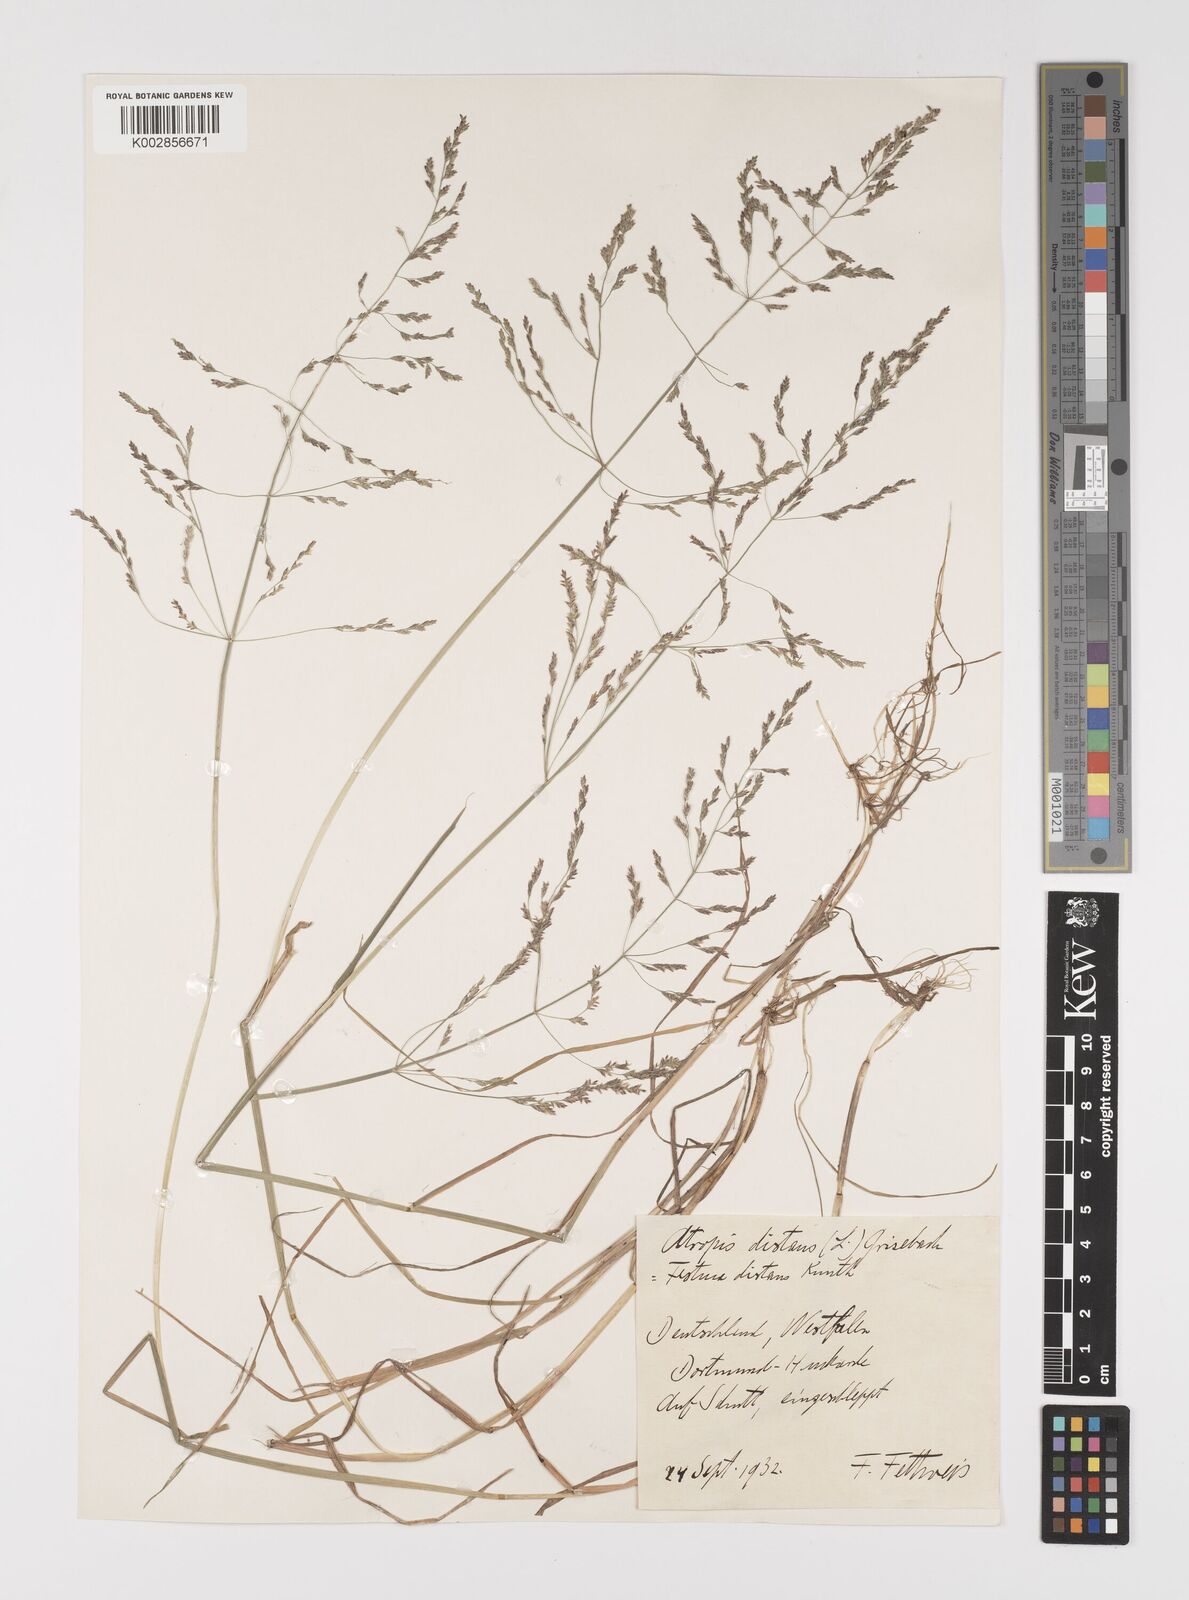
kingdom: Plantae
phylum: Tracheophyta
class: Liliopsida
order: Poales
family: Poaceae
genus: Puccinellia
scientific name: Puccinellia
